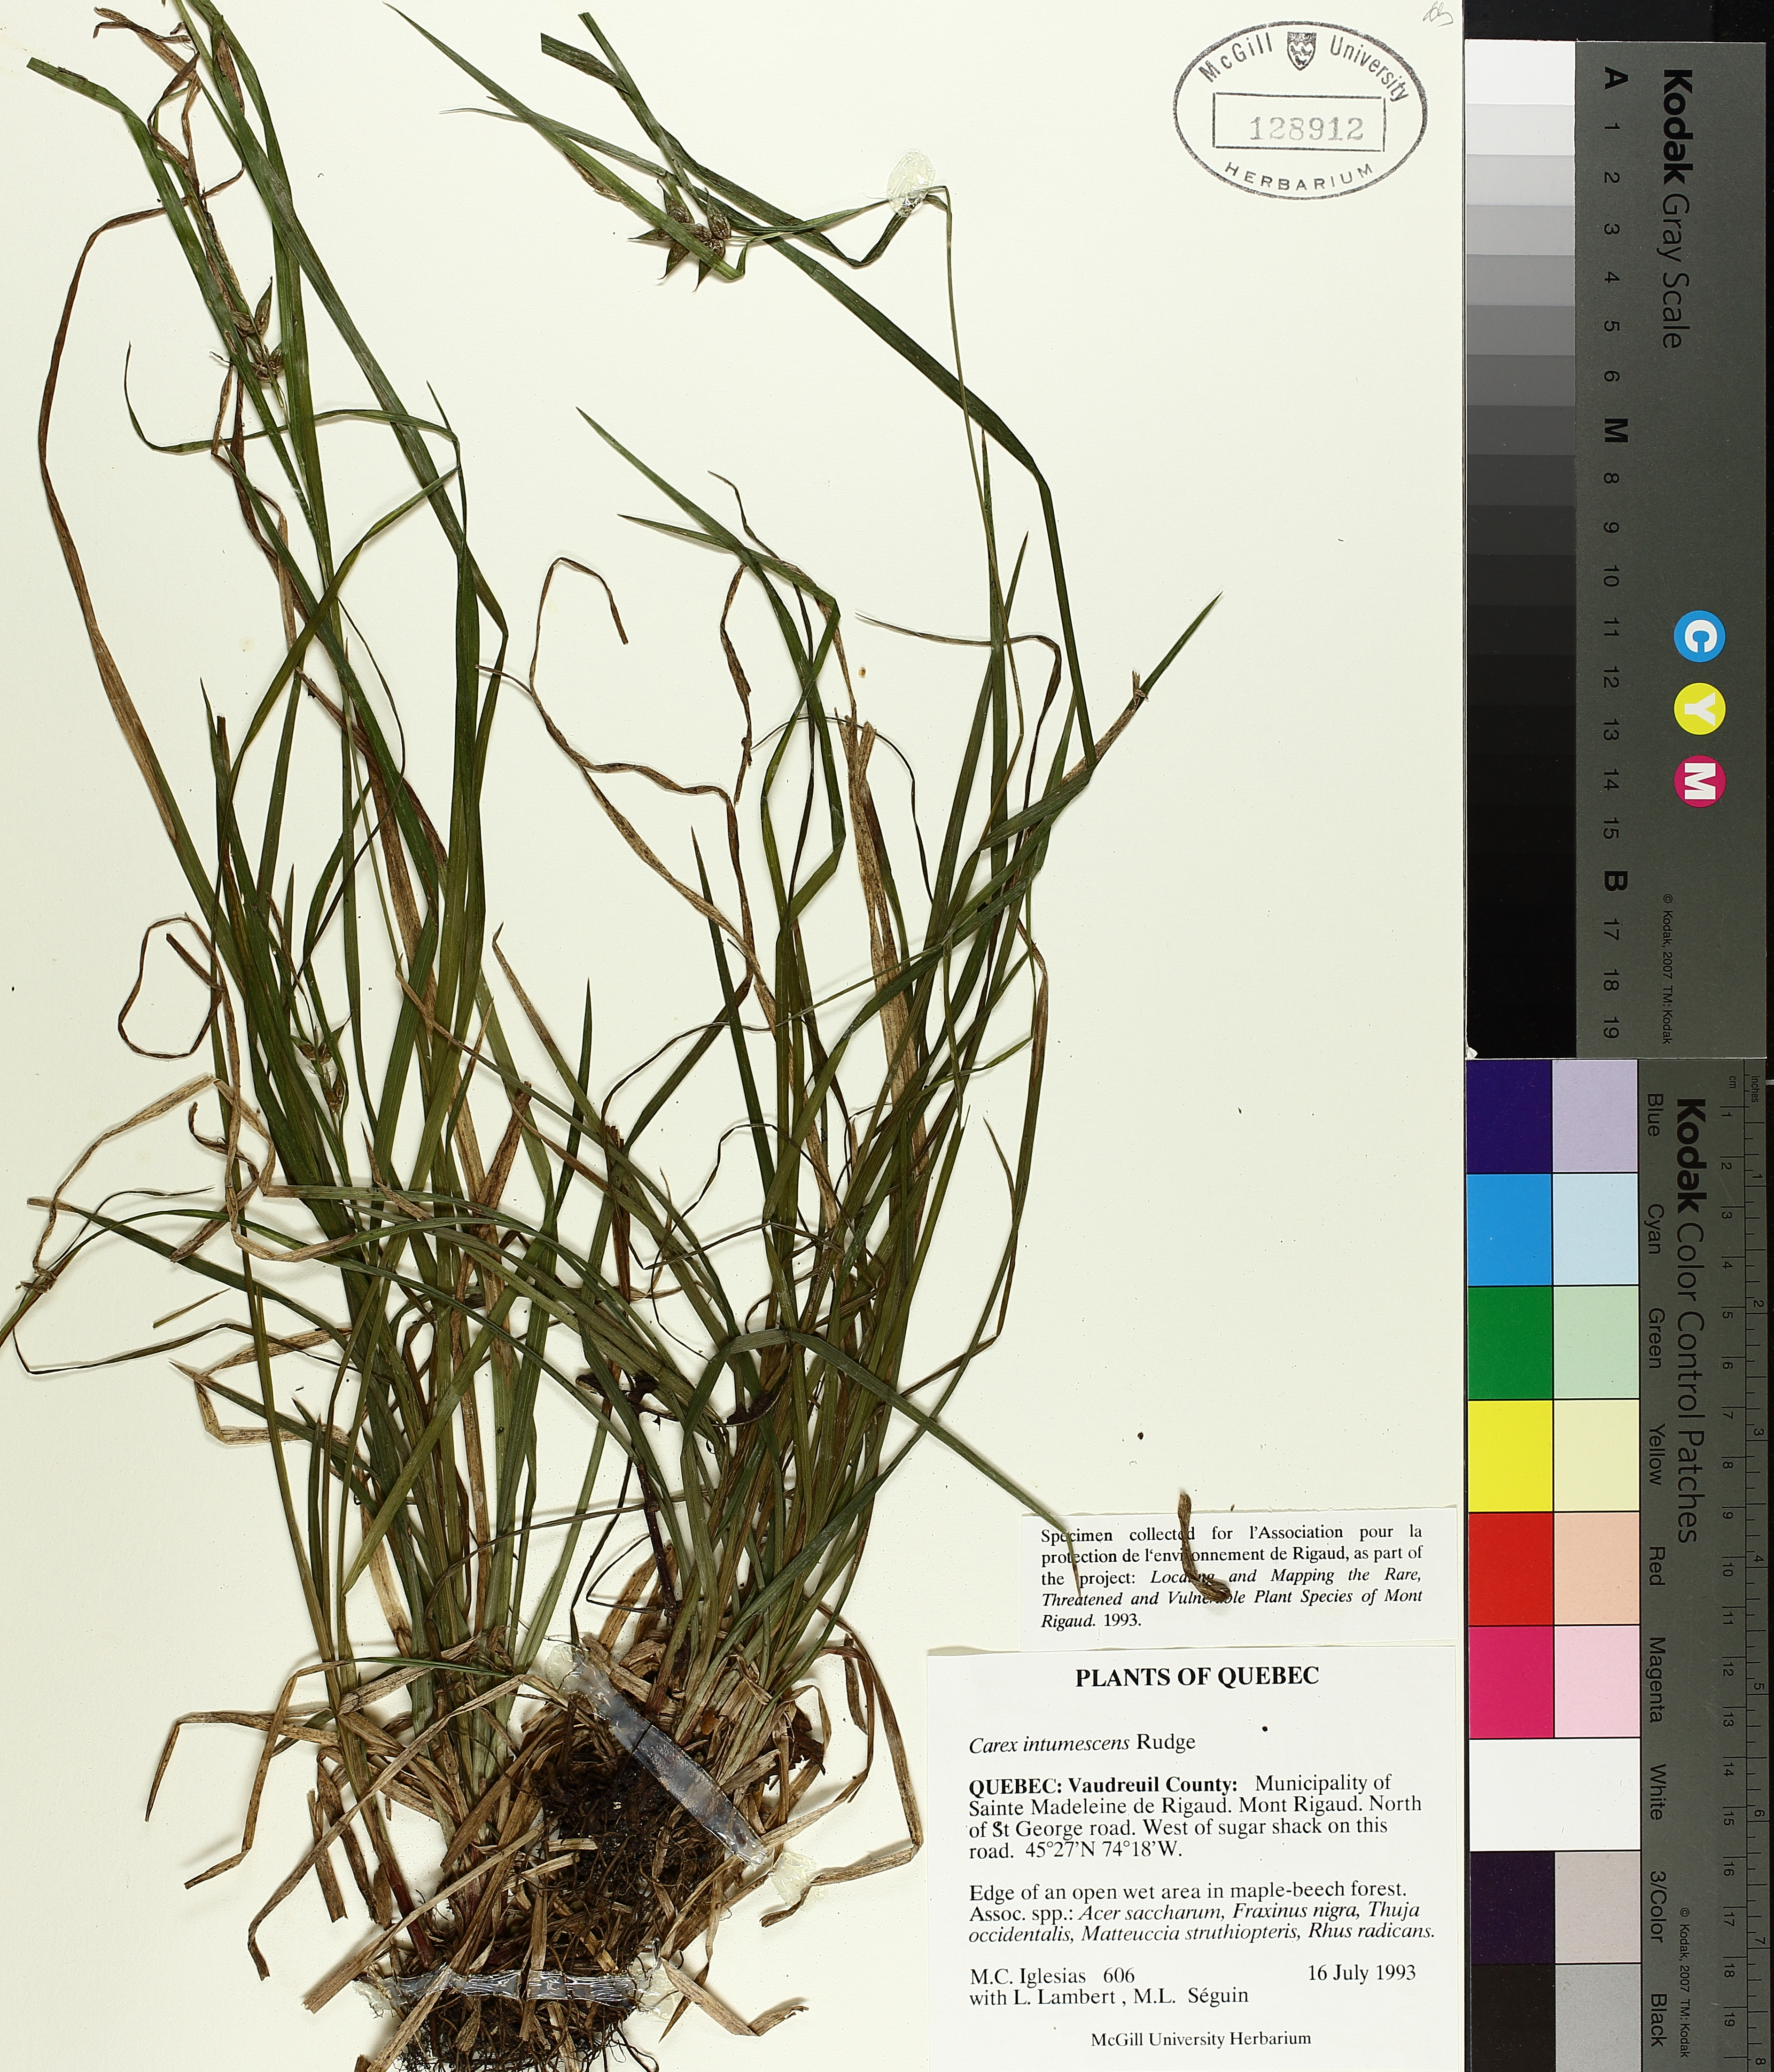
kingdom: Plantae
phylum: Tracheophyta
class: Liliopsida
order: Poales
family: Cyperaceae
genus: Carex
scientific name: Carex intumescens
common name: Greater bladder sedge
